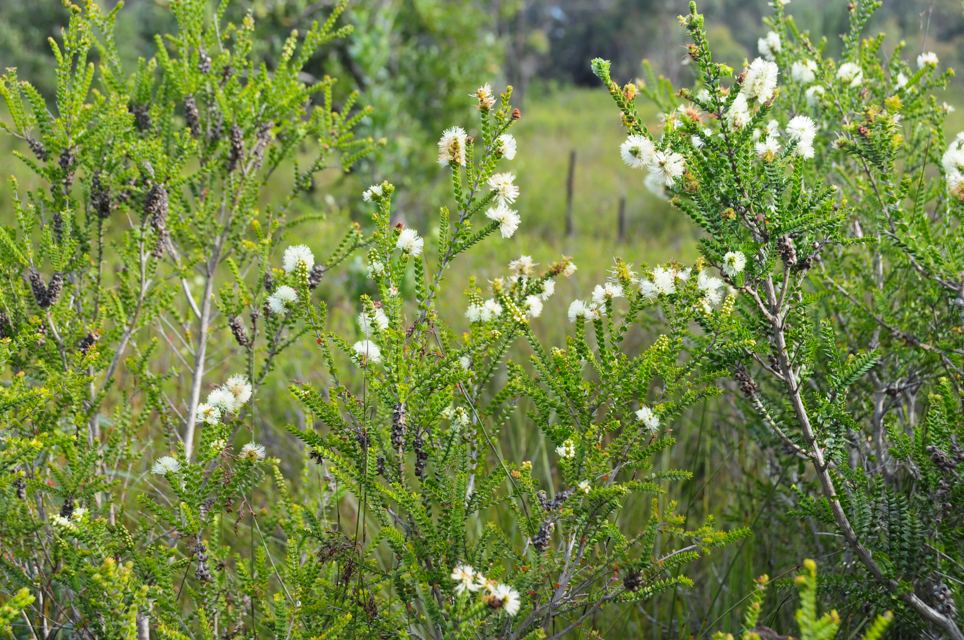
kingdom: Plantae
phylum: Tracheophyta
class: Magnoliopsida
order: Myrtales
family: Myrtaceae
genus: Melaleuca
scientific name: Melaleuca squarrosa
